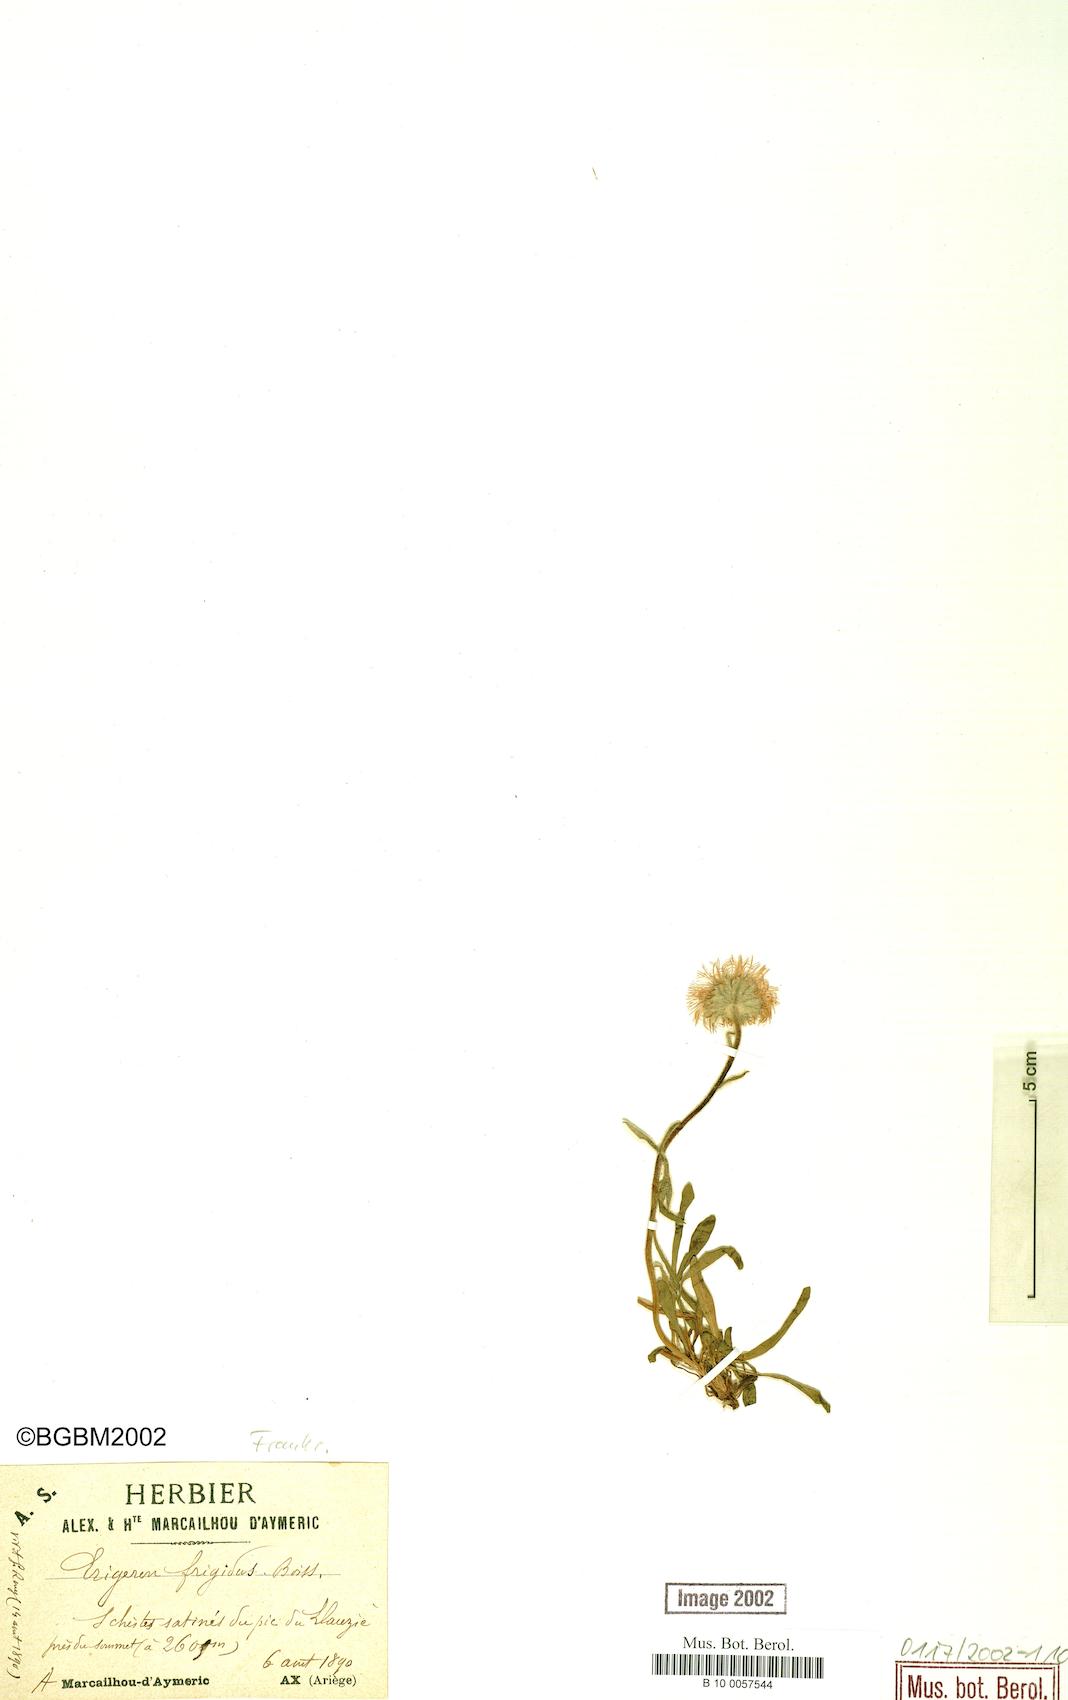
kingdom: Plantae
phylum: Tracheophyta
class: Magnoliopsida
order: Asterales
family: Asteraceae
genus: Erigeron
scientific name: Erigeron aragonensis
